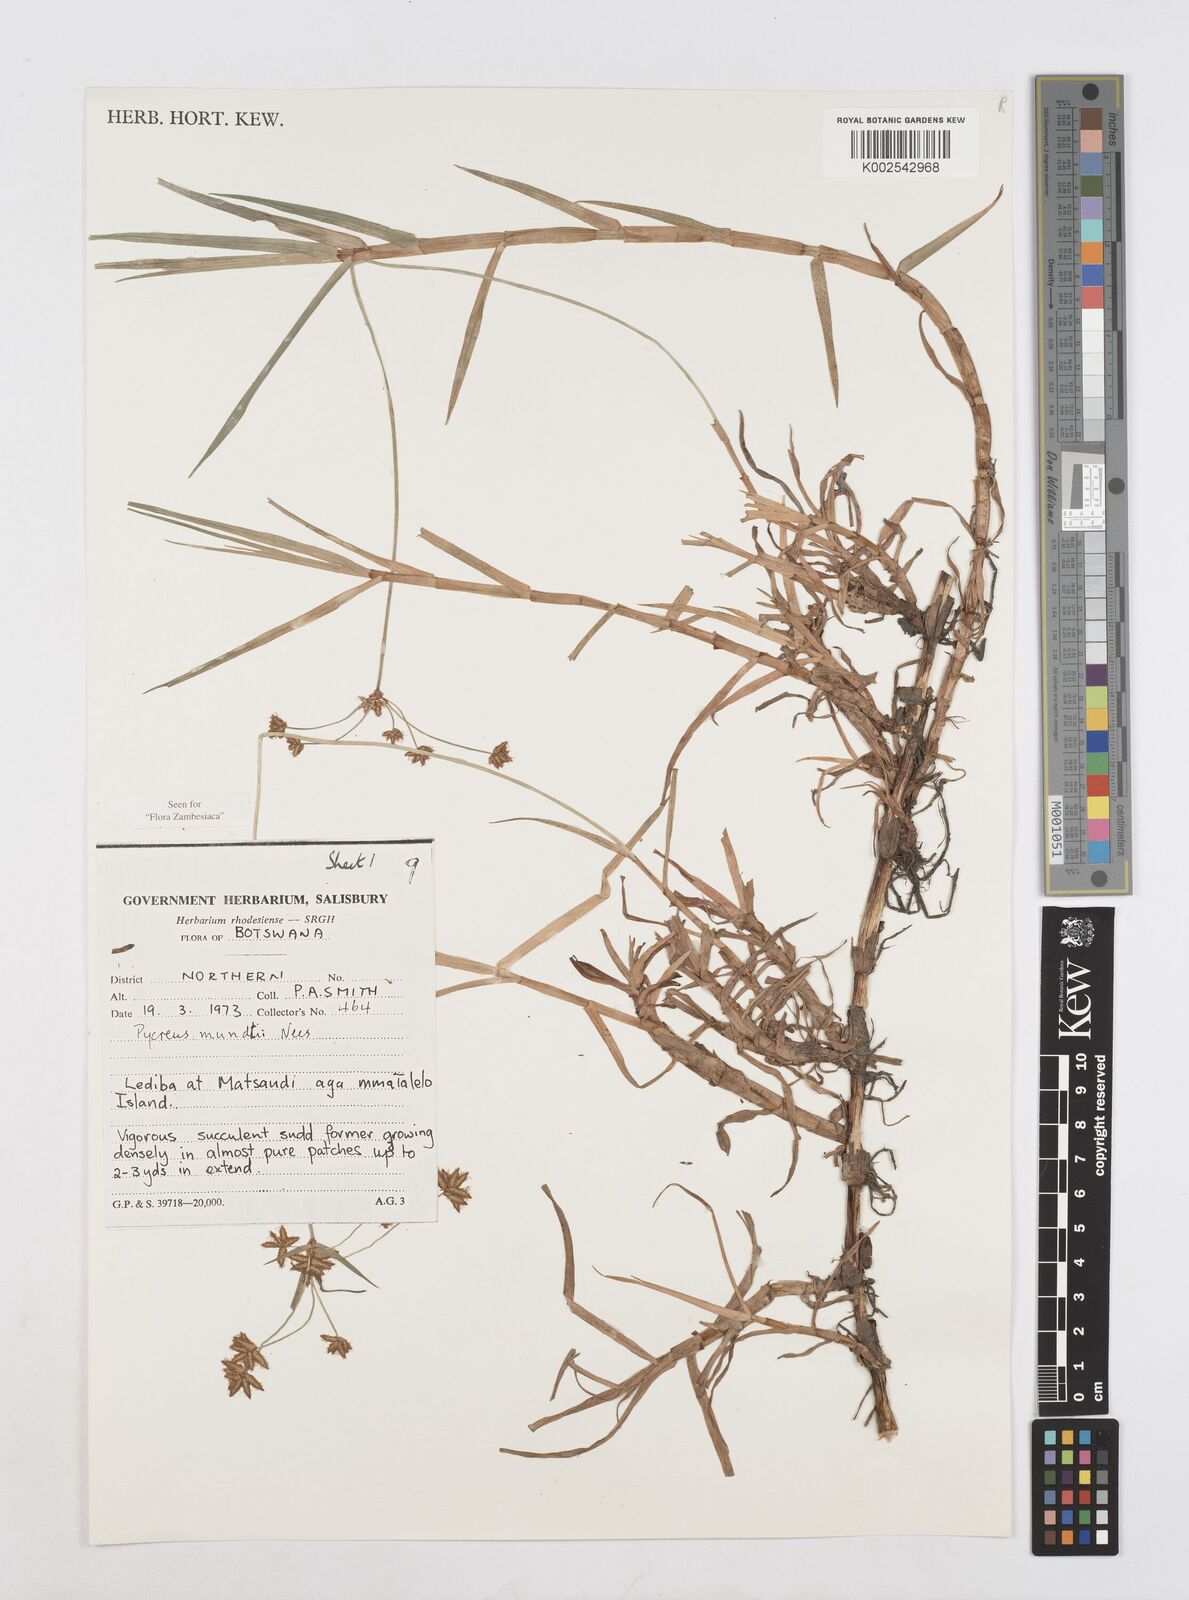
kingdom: Plantae
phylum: Tracheophyta
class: Liliopsida
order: Poales
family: Cyperaceae
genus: Cyperus
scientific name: Cyperus mundii
